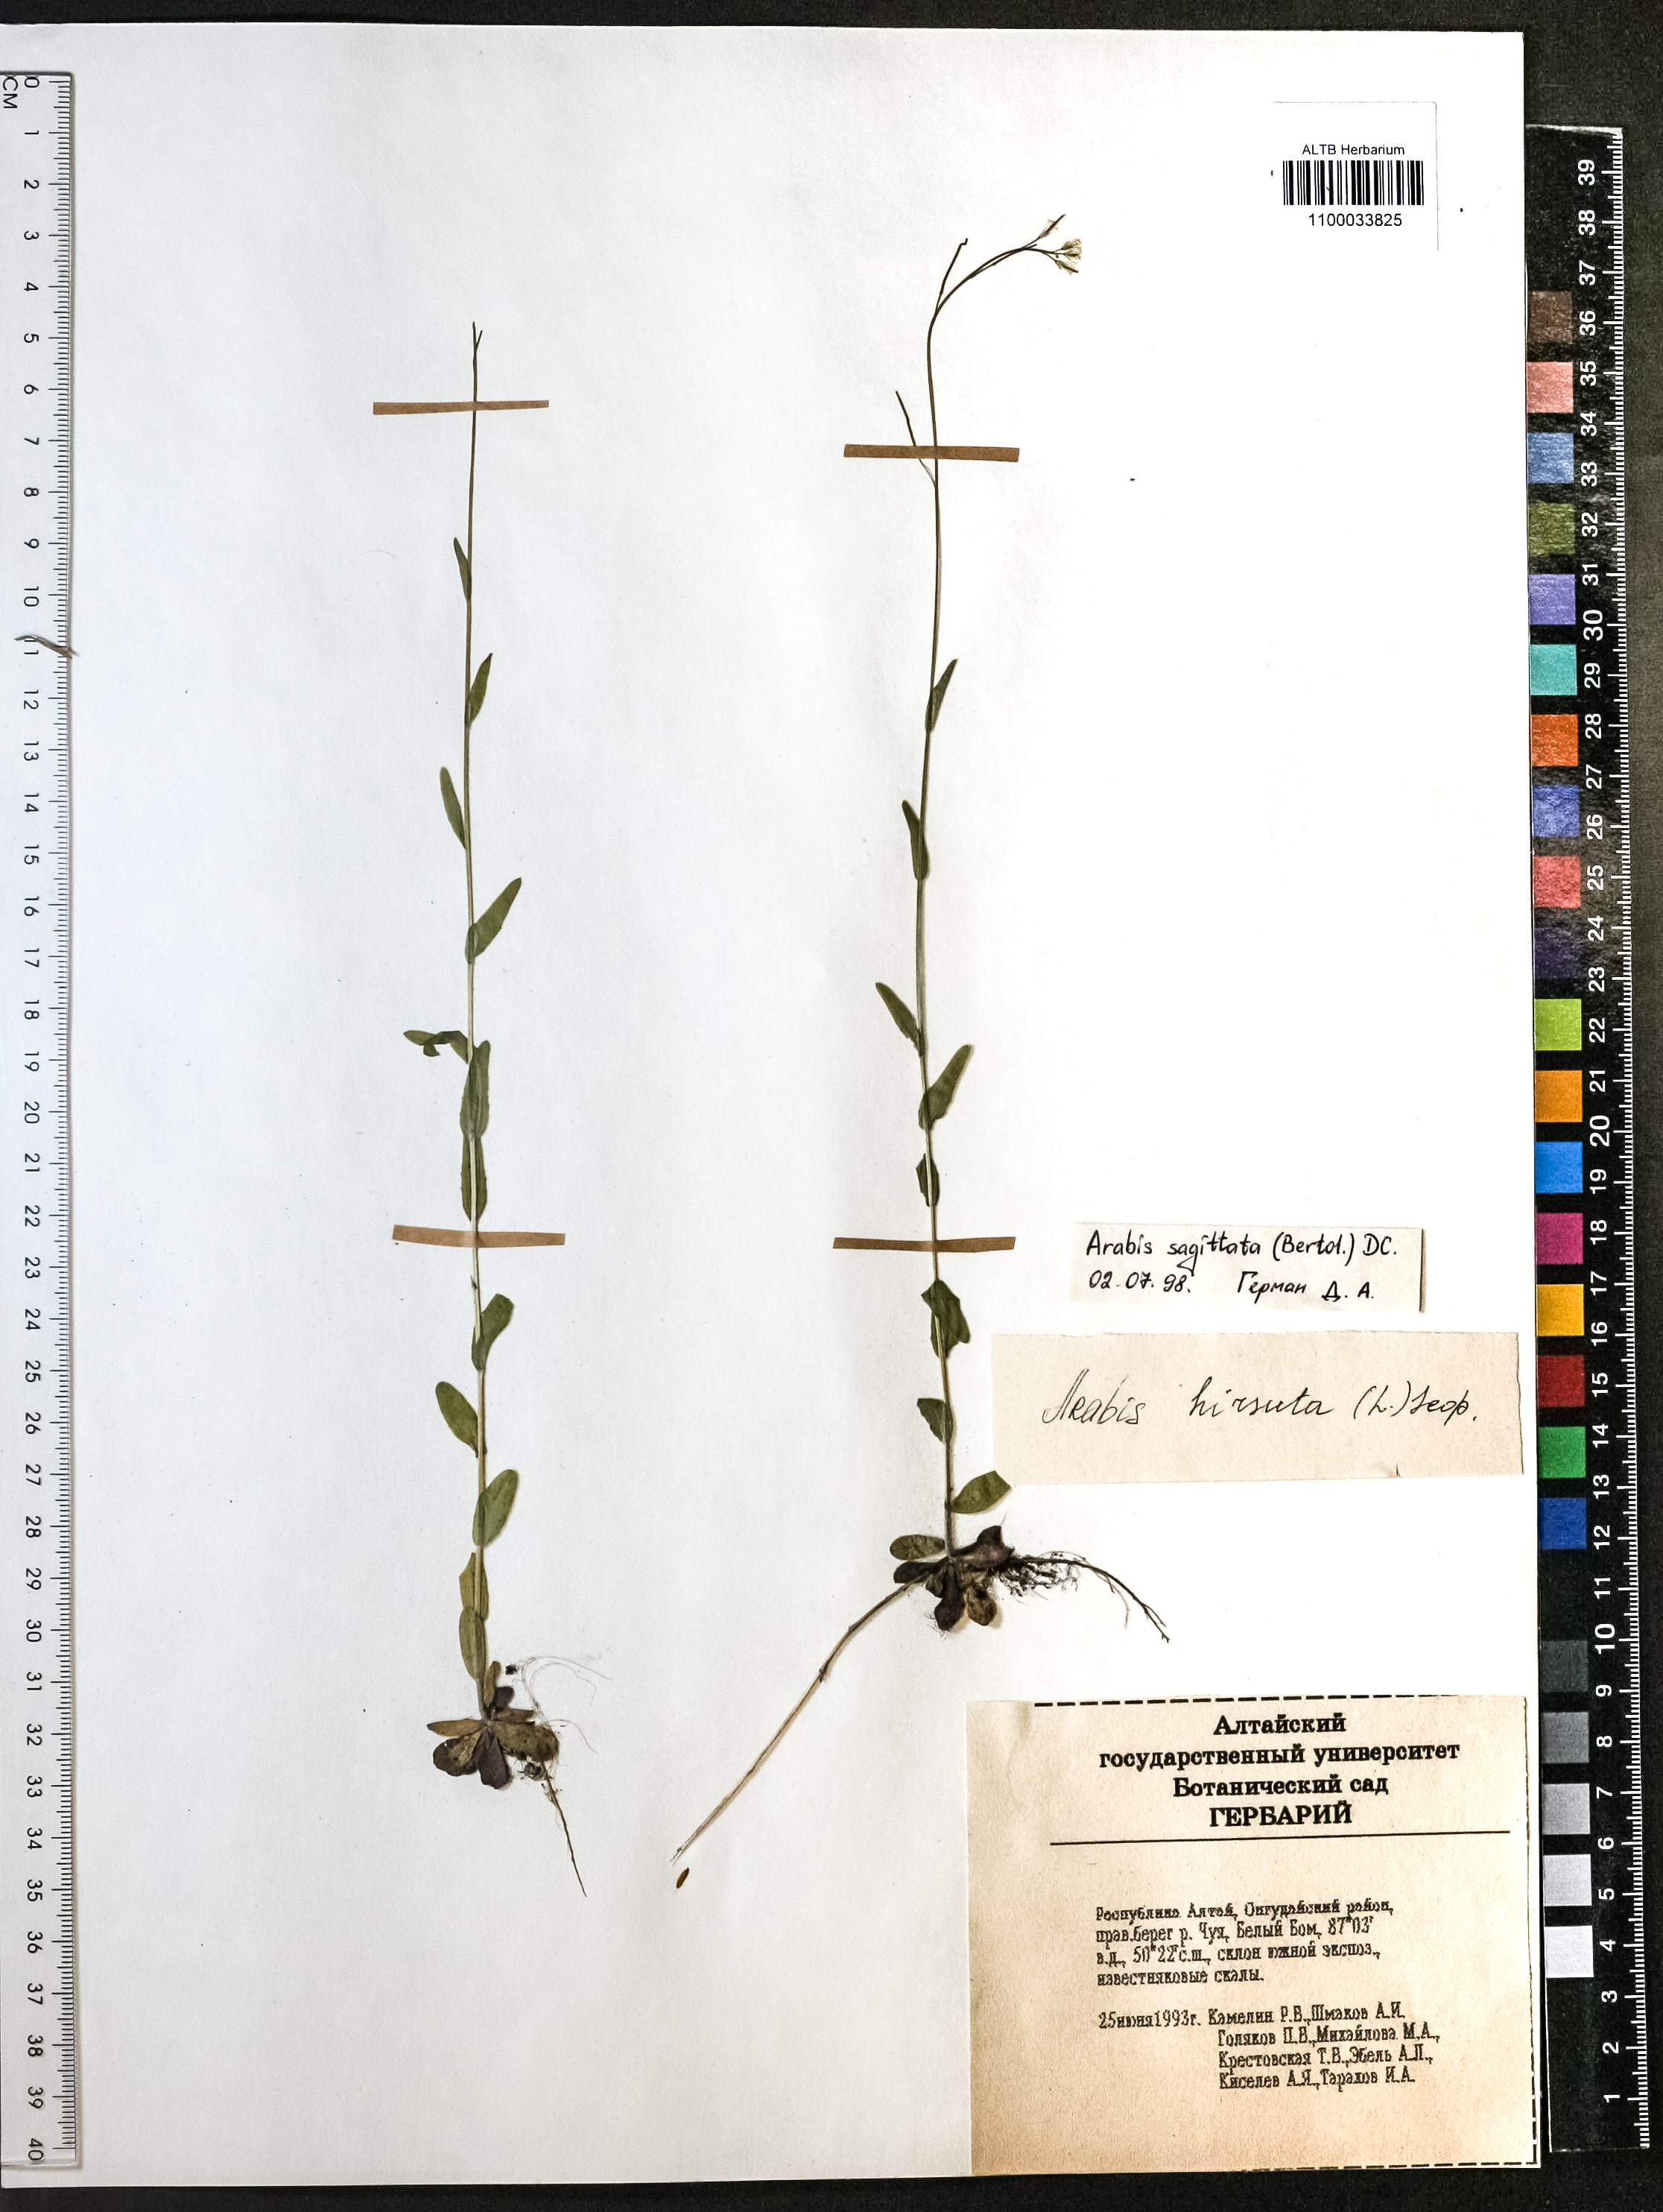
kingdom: Plantae
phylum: Tracheophyta
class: Magnoliopsida
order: Brassicales
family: Brassicaceae
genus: Arabis
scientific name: Arabis sagittata
